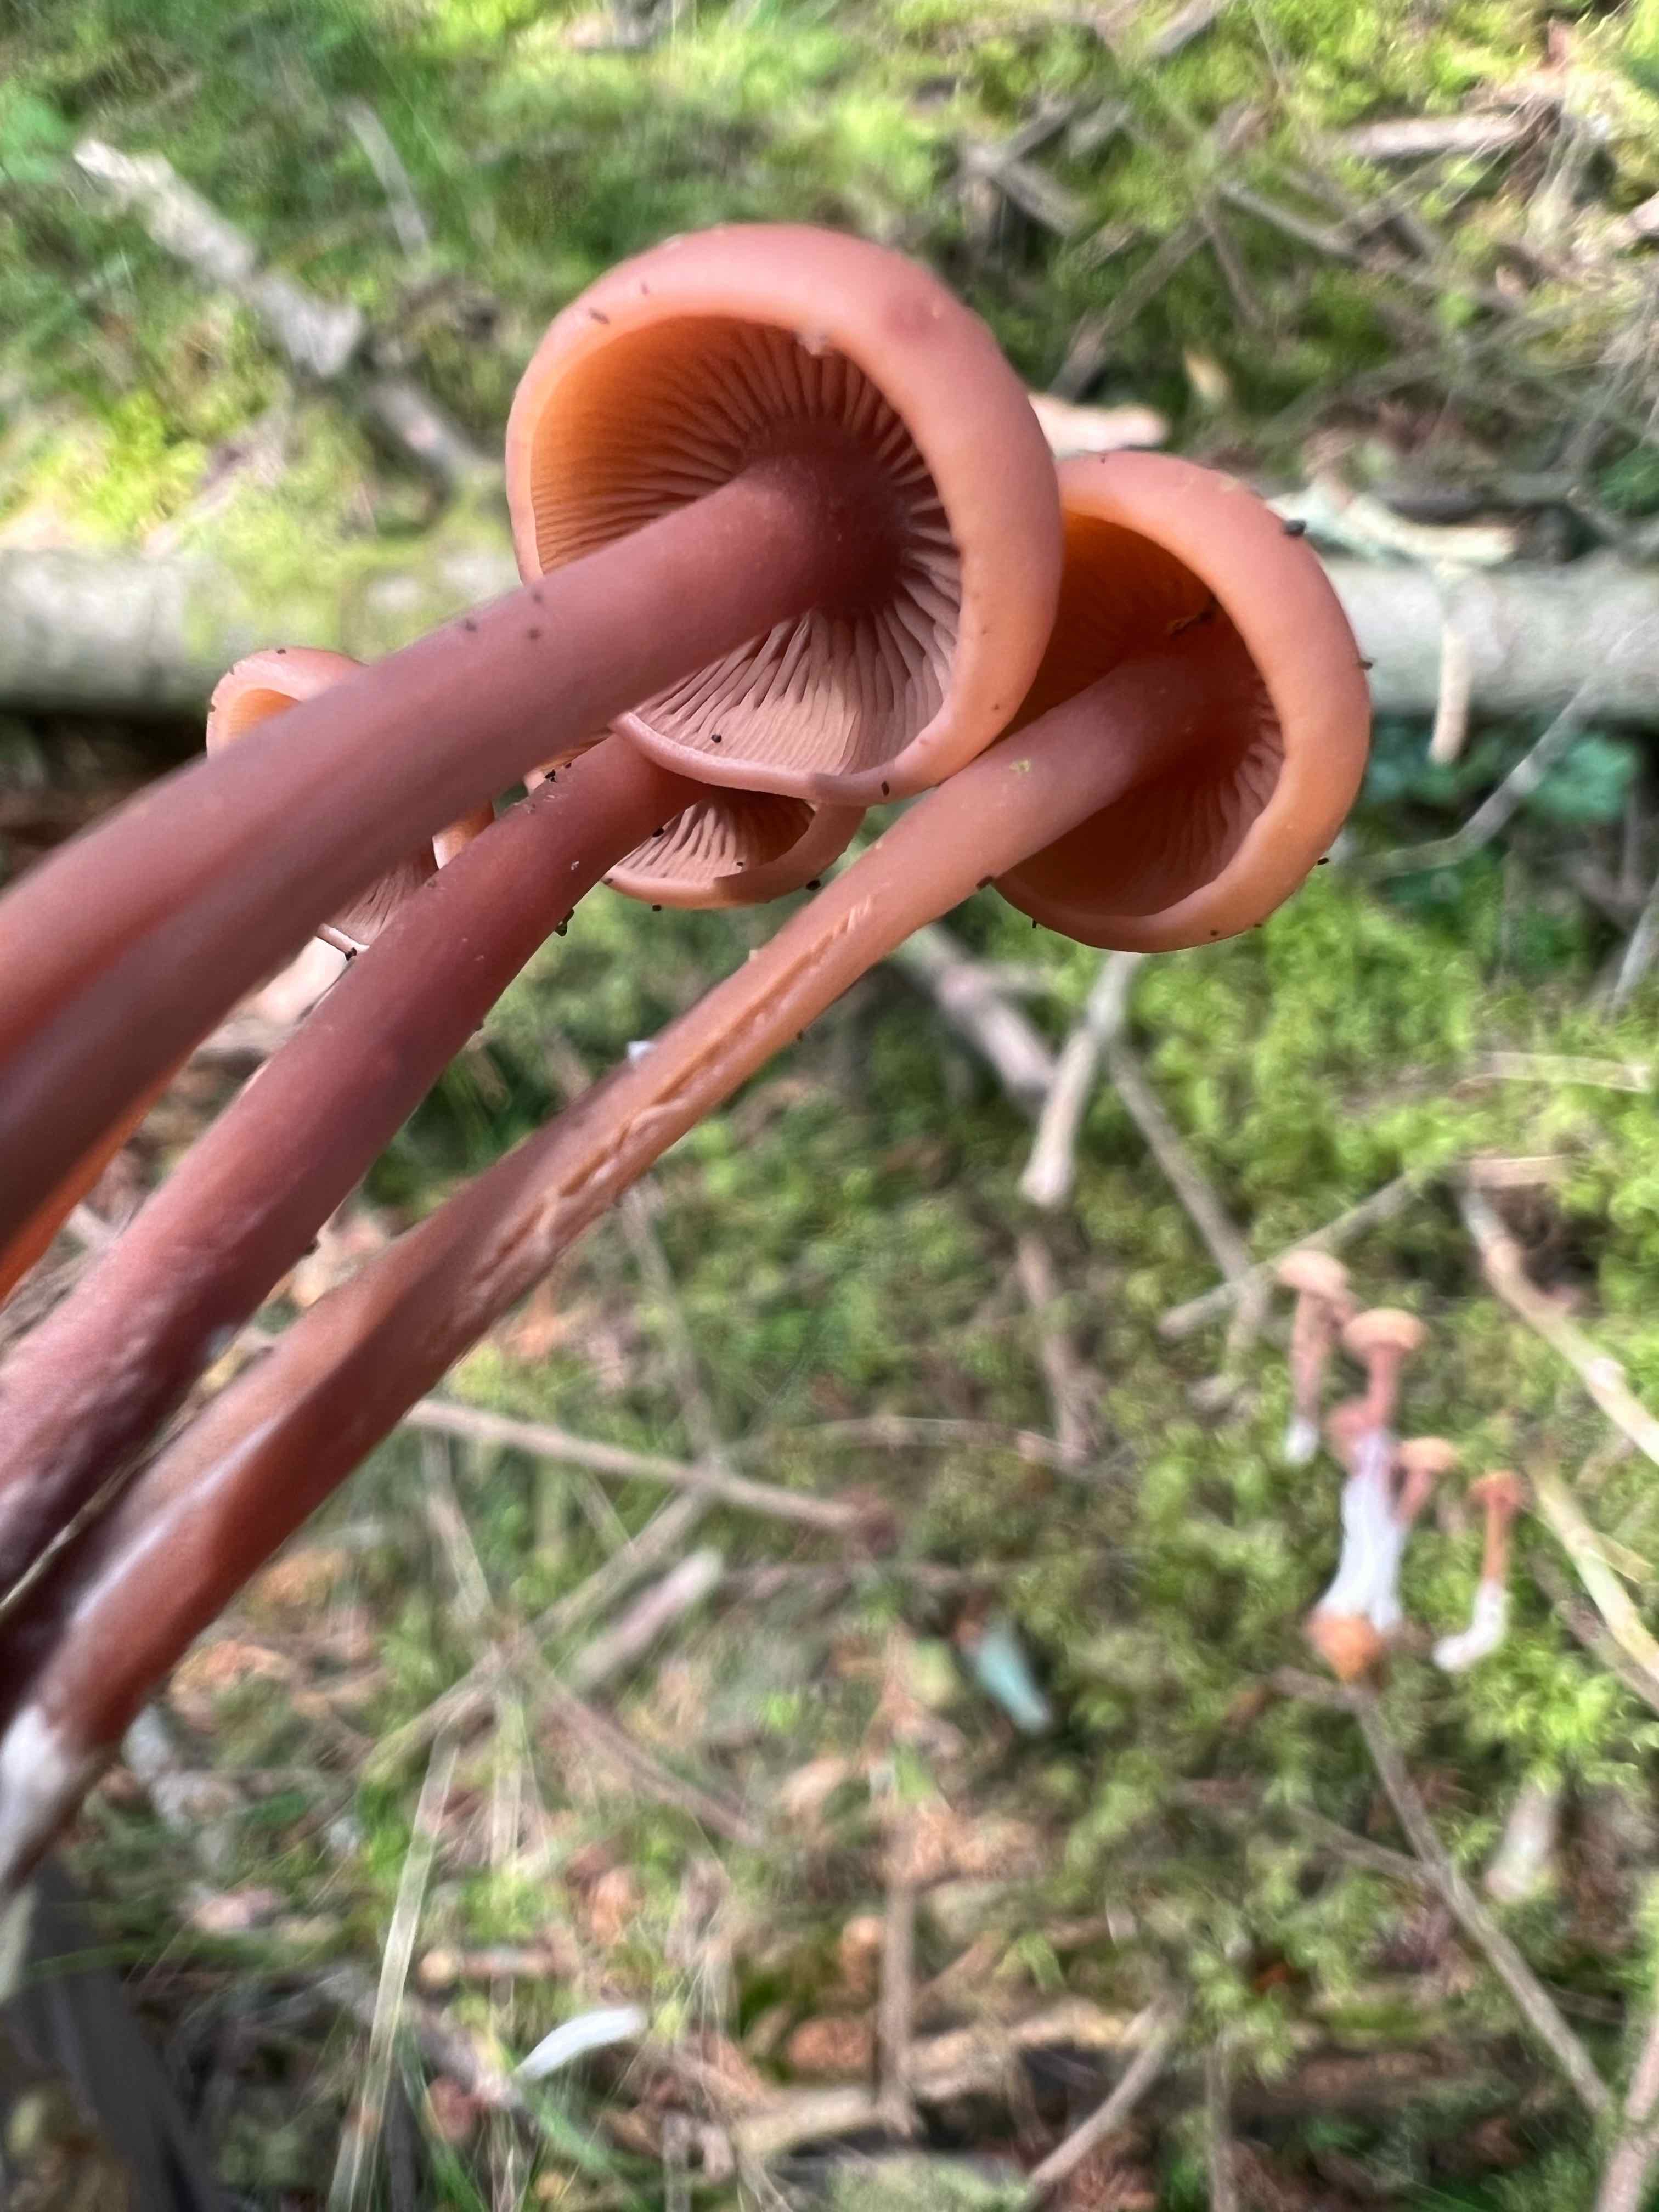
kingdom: Fungi
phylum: Basidiomycota
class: Agaricomycetes
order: Agaricales
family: Omphalotaceae
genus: Connopus
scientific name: Connopus acervatus
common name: tue-fladhat
